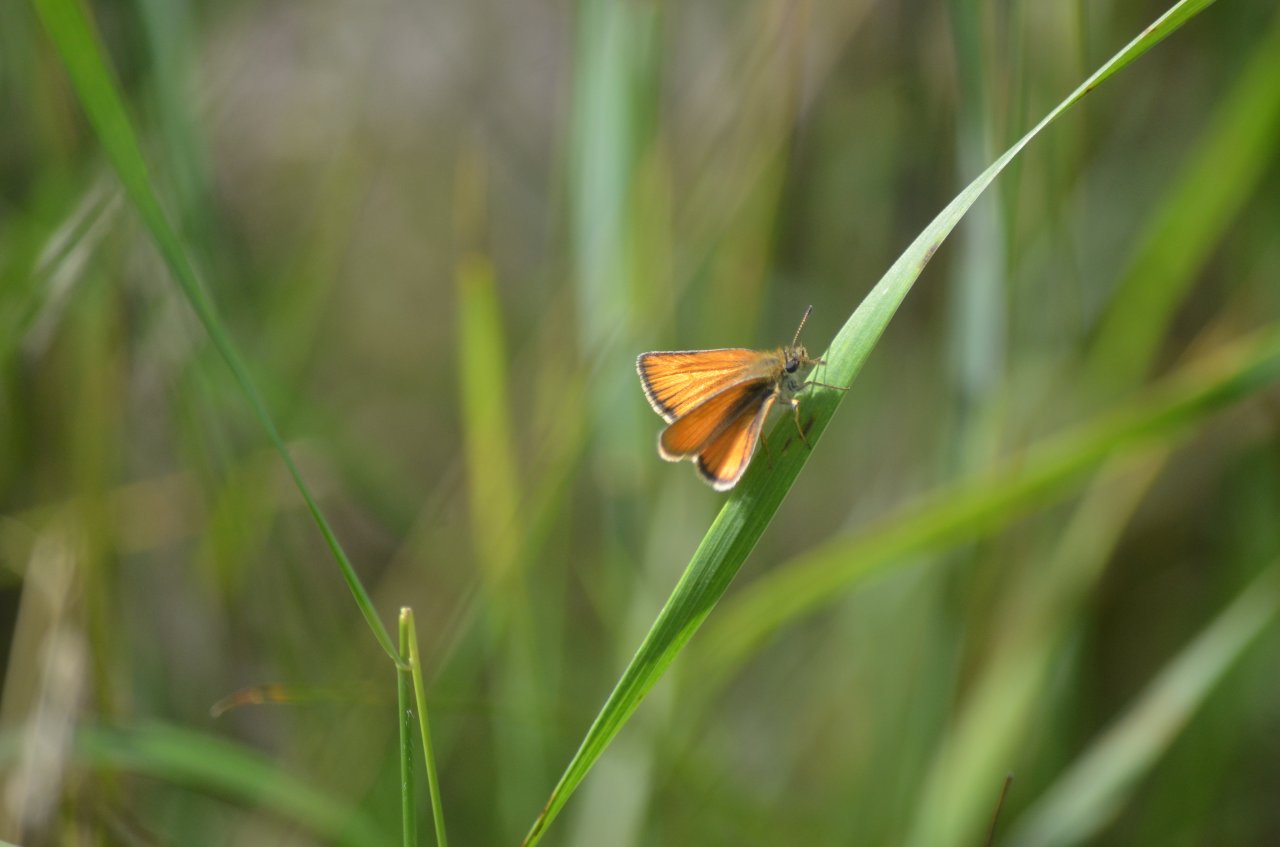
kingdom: Animalia
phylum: Arthropoda
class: Insecta
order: Lepidoptera
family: Hesperiidae
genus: Thymelicus
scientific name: Thymelicus lineola
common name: European Skipper
